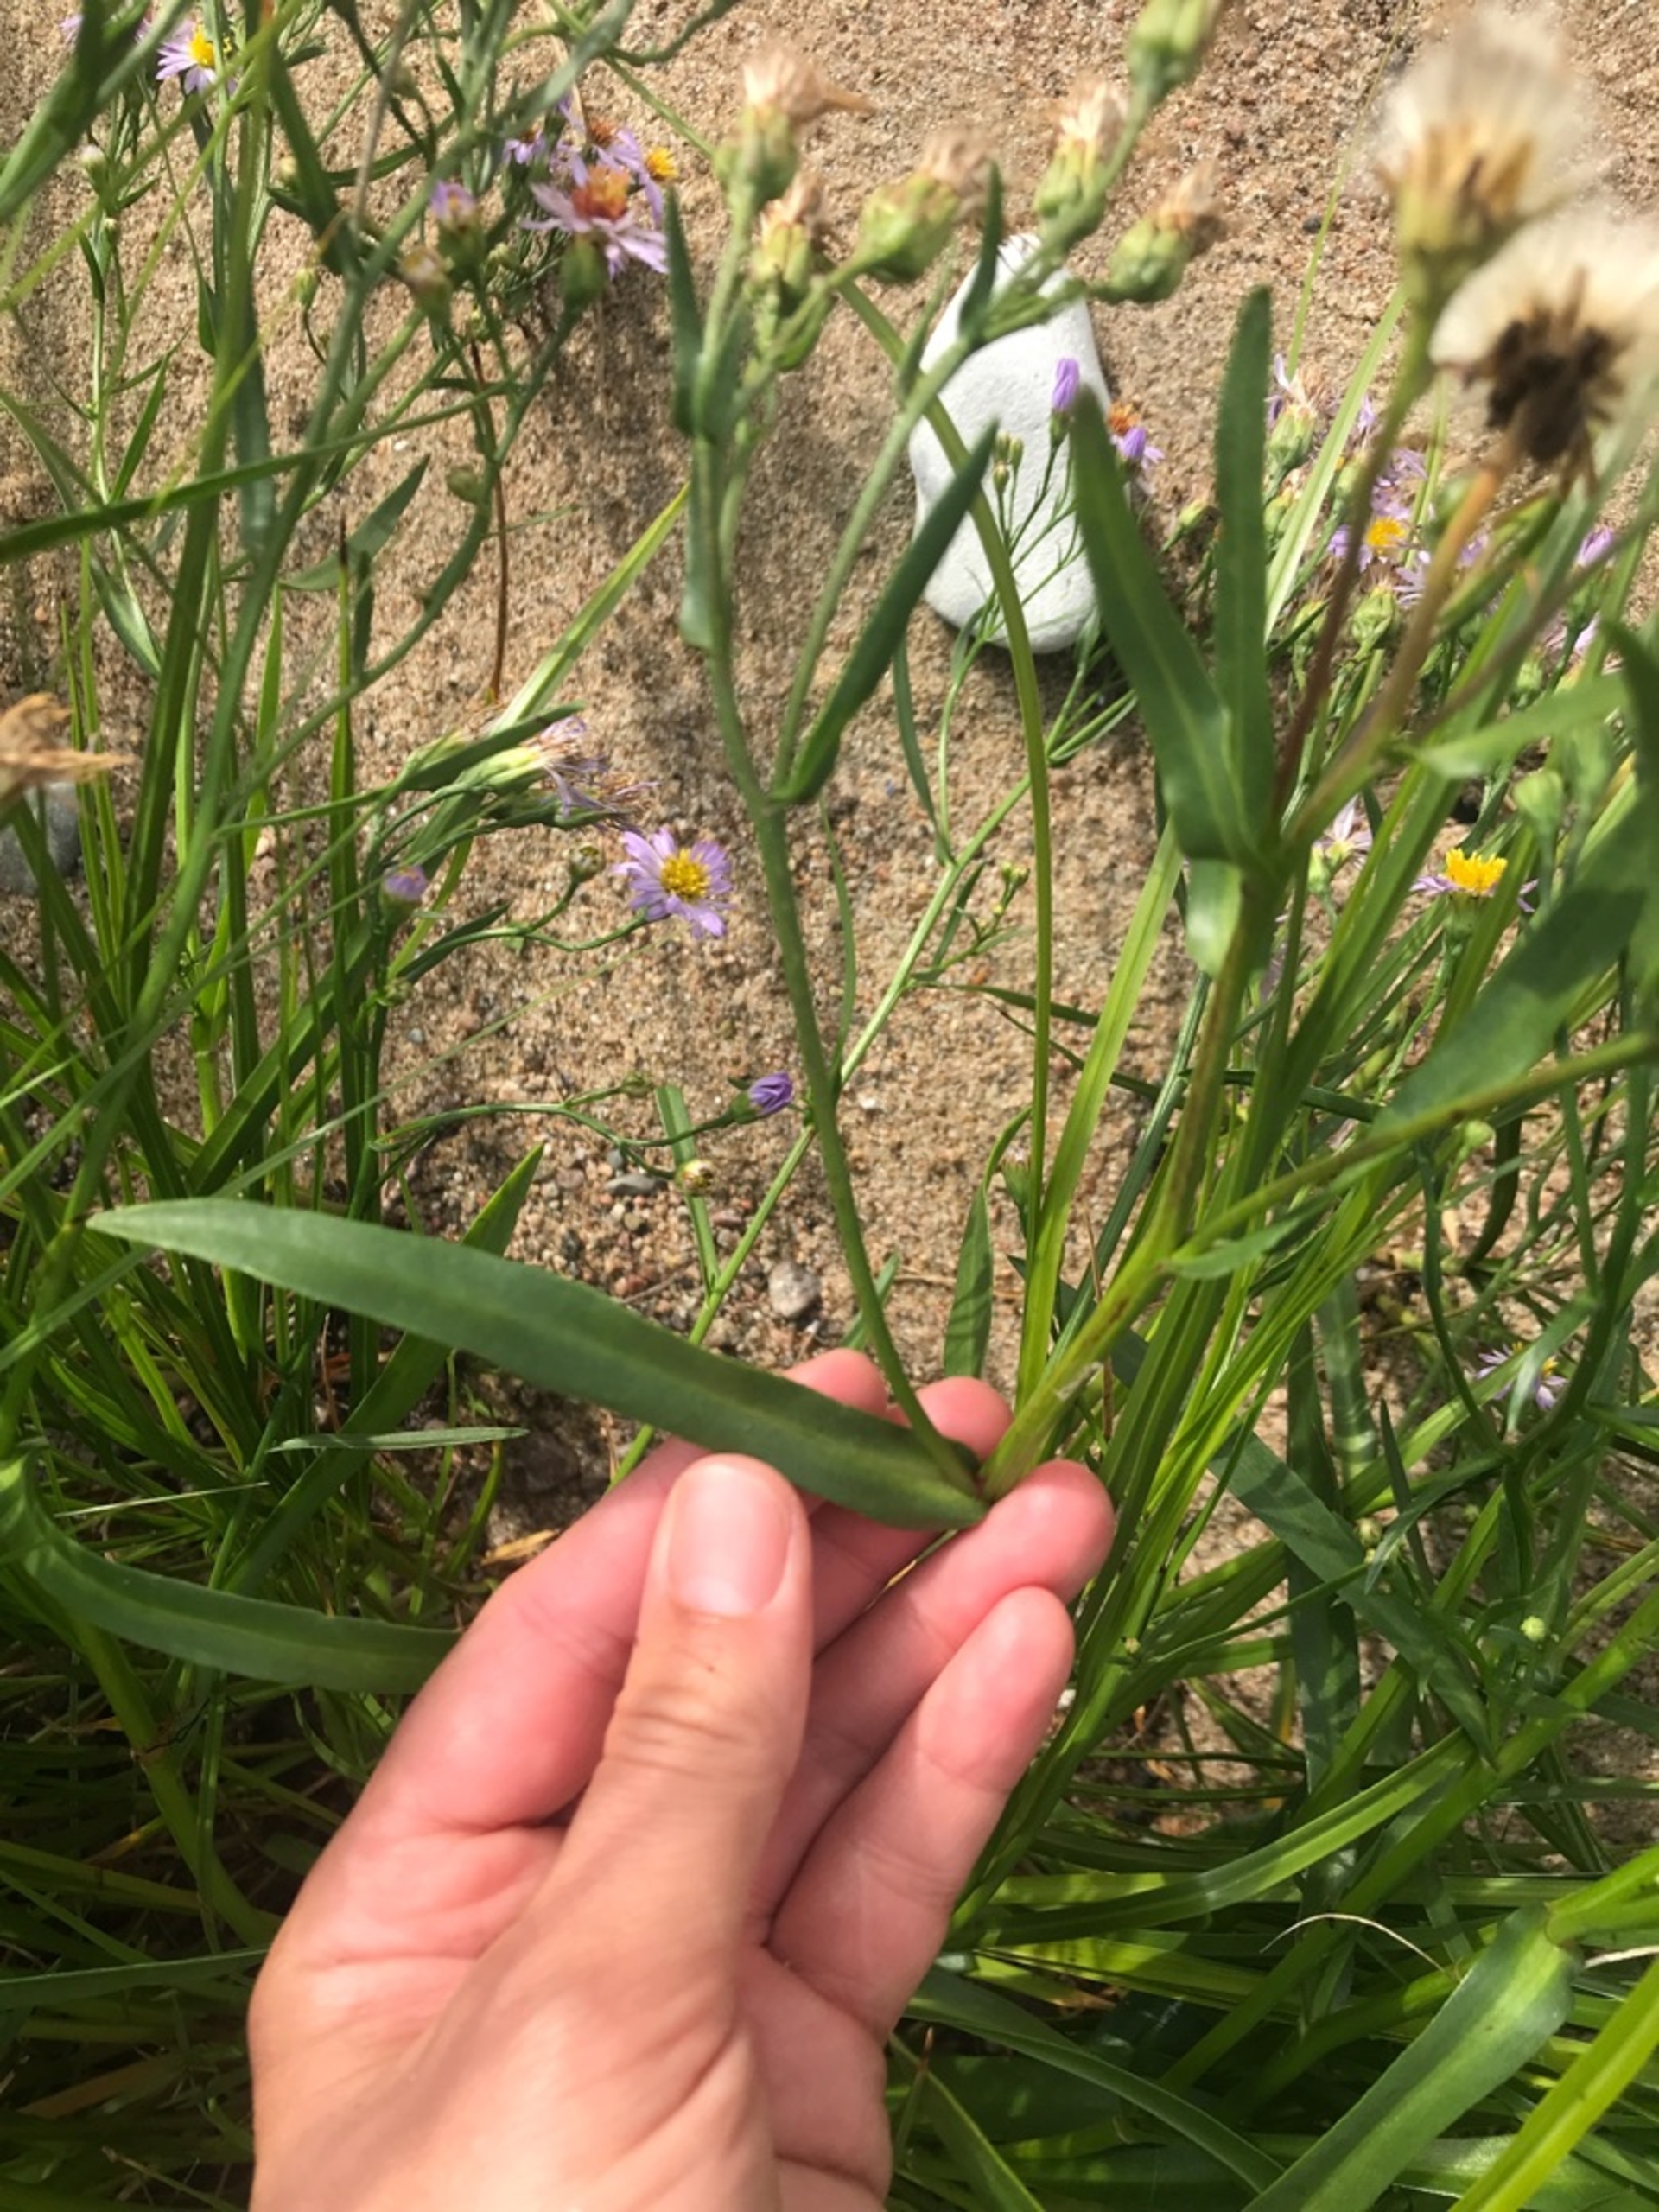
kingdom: Plantae
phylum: Tracheophyta
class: Magnoliopsida
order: Asterales
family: Asteraceae
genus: Tripolium
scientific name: Tripolium pannonicum
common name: Strandasters (underart)
